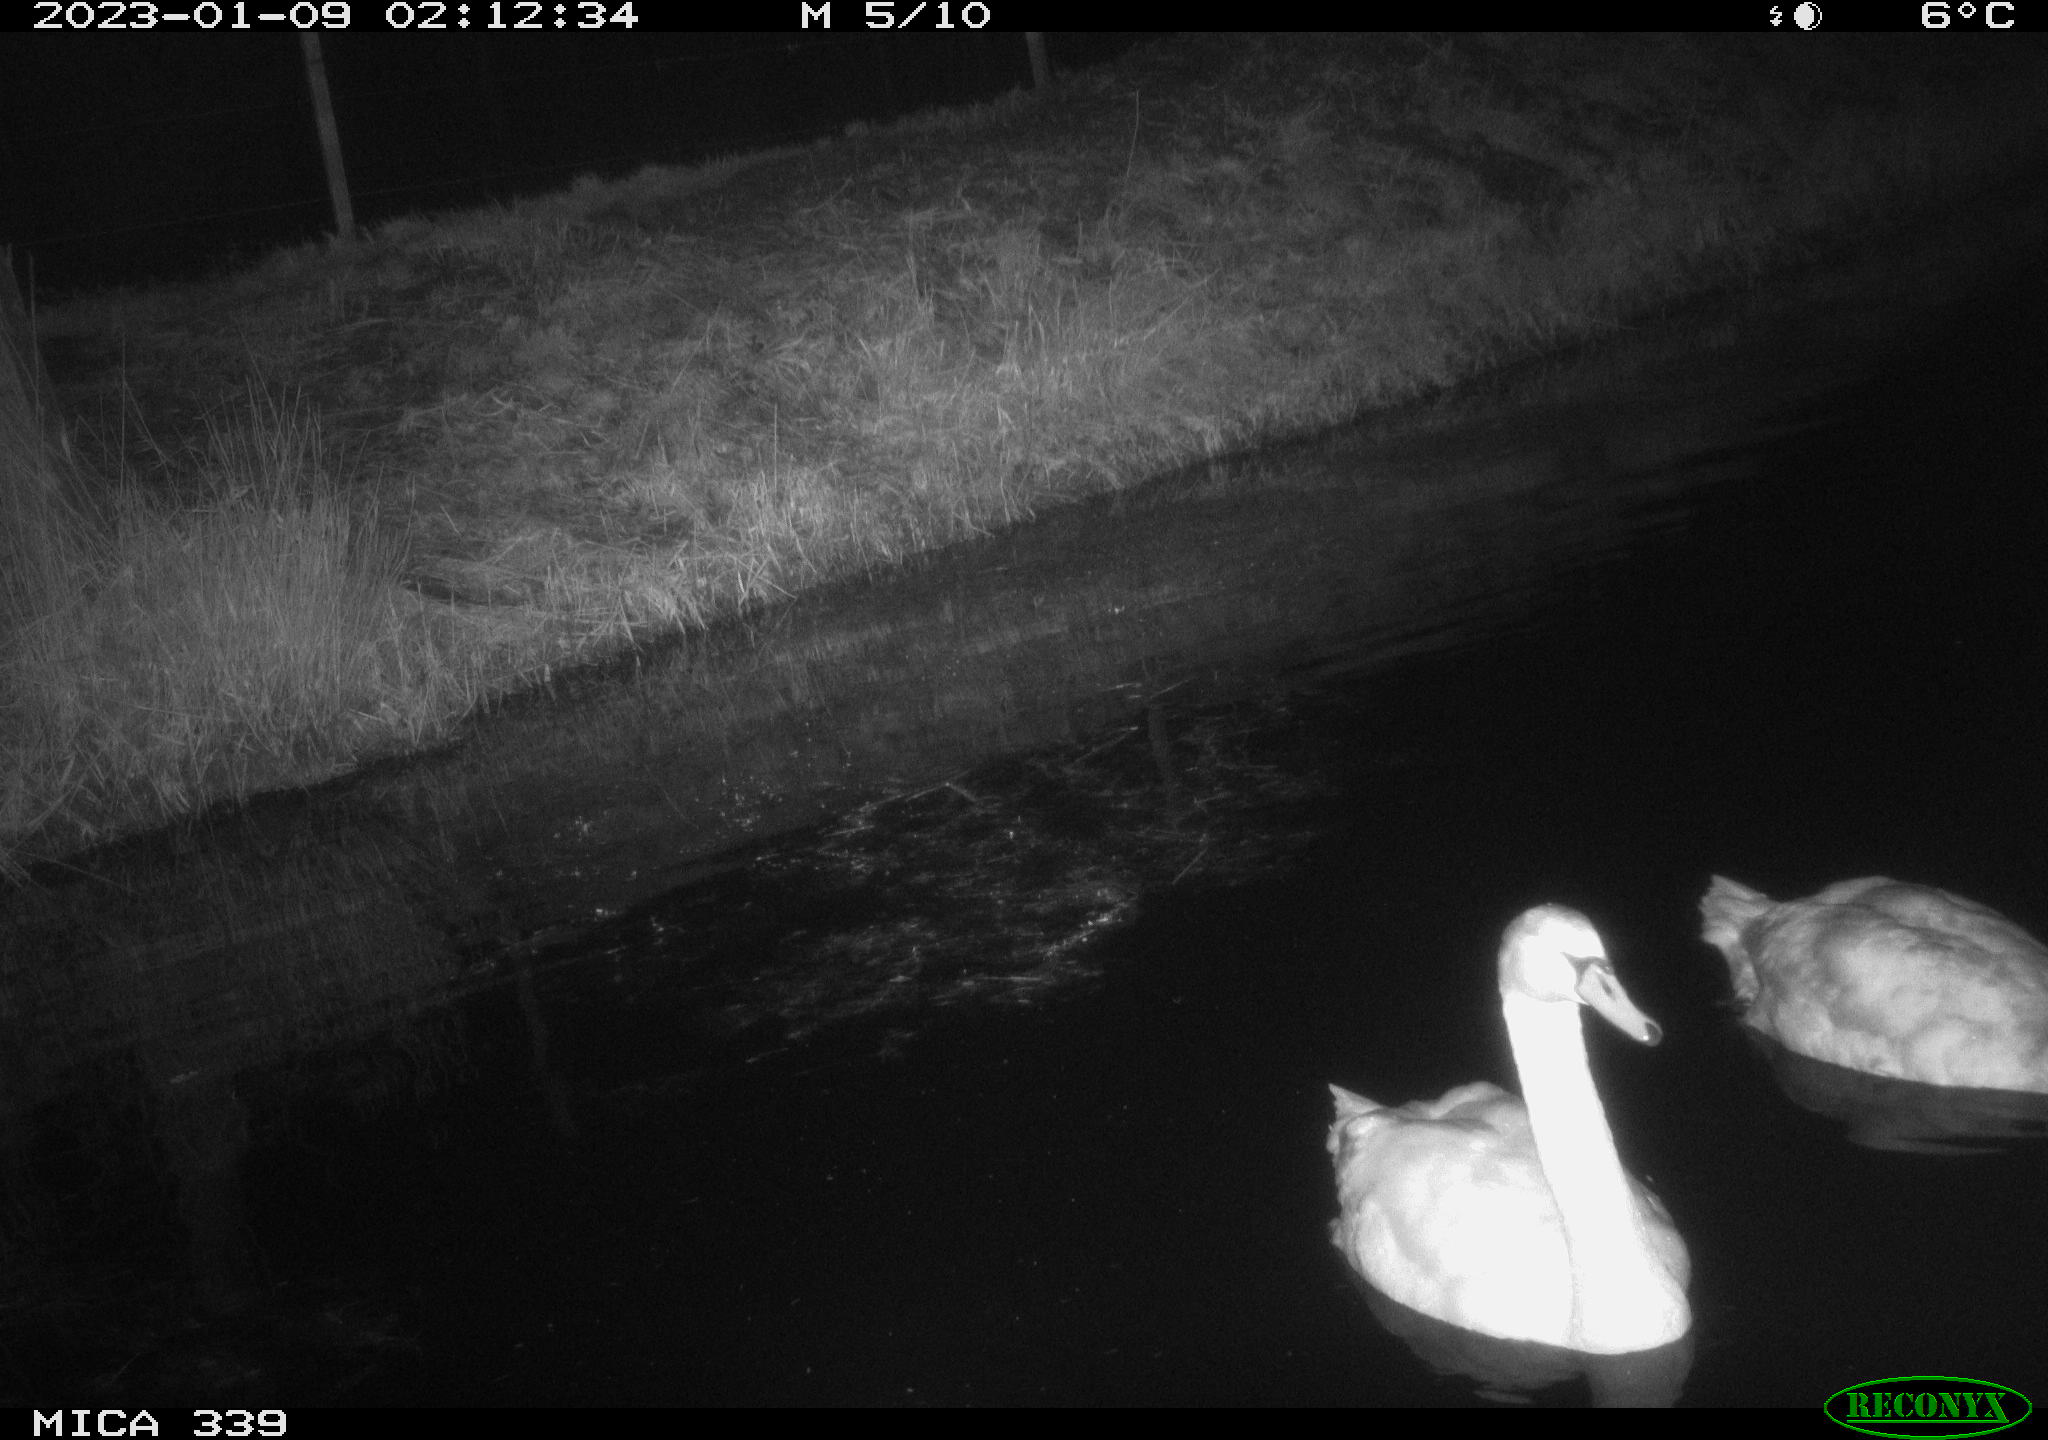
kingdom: Animalia
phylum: Chordata
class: Aves
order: Anseriformes
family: Anatidae
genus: Cygnus
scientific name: Cygnus olor
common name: Mute swan
